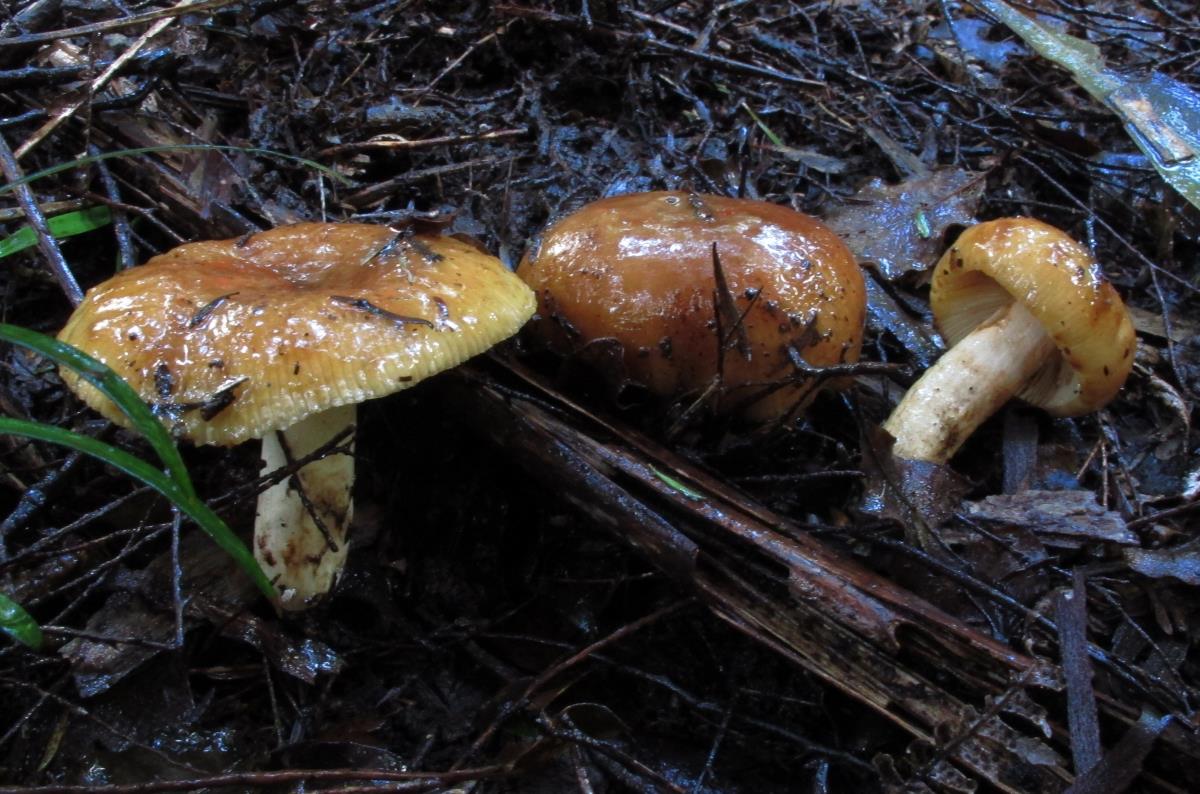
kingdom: Fungi
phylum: Basidiomycota
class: Agaricomycetes
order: Russulales
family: Russulaceae
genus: Russula
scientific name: Russula
